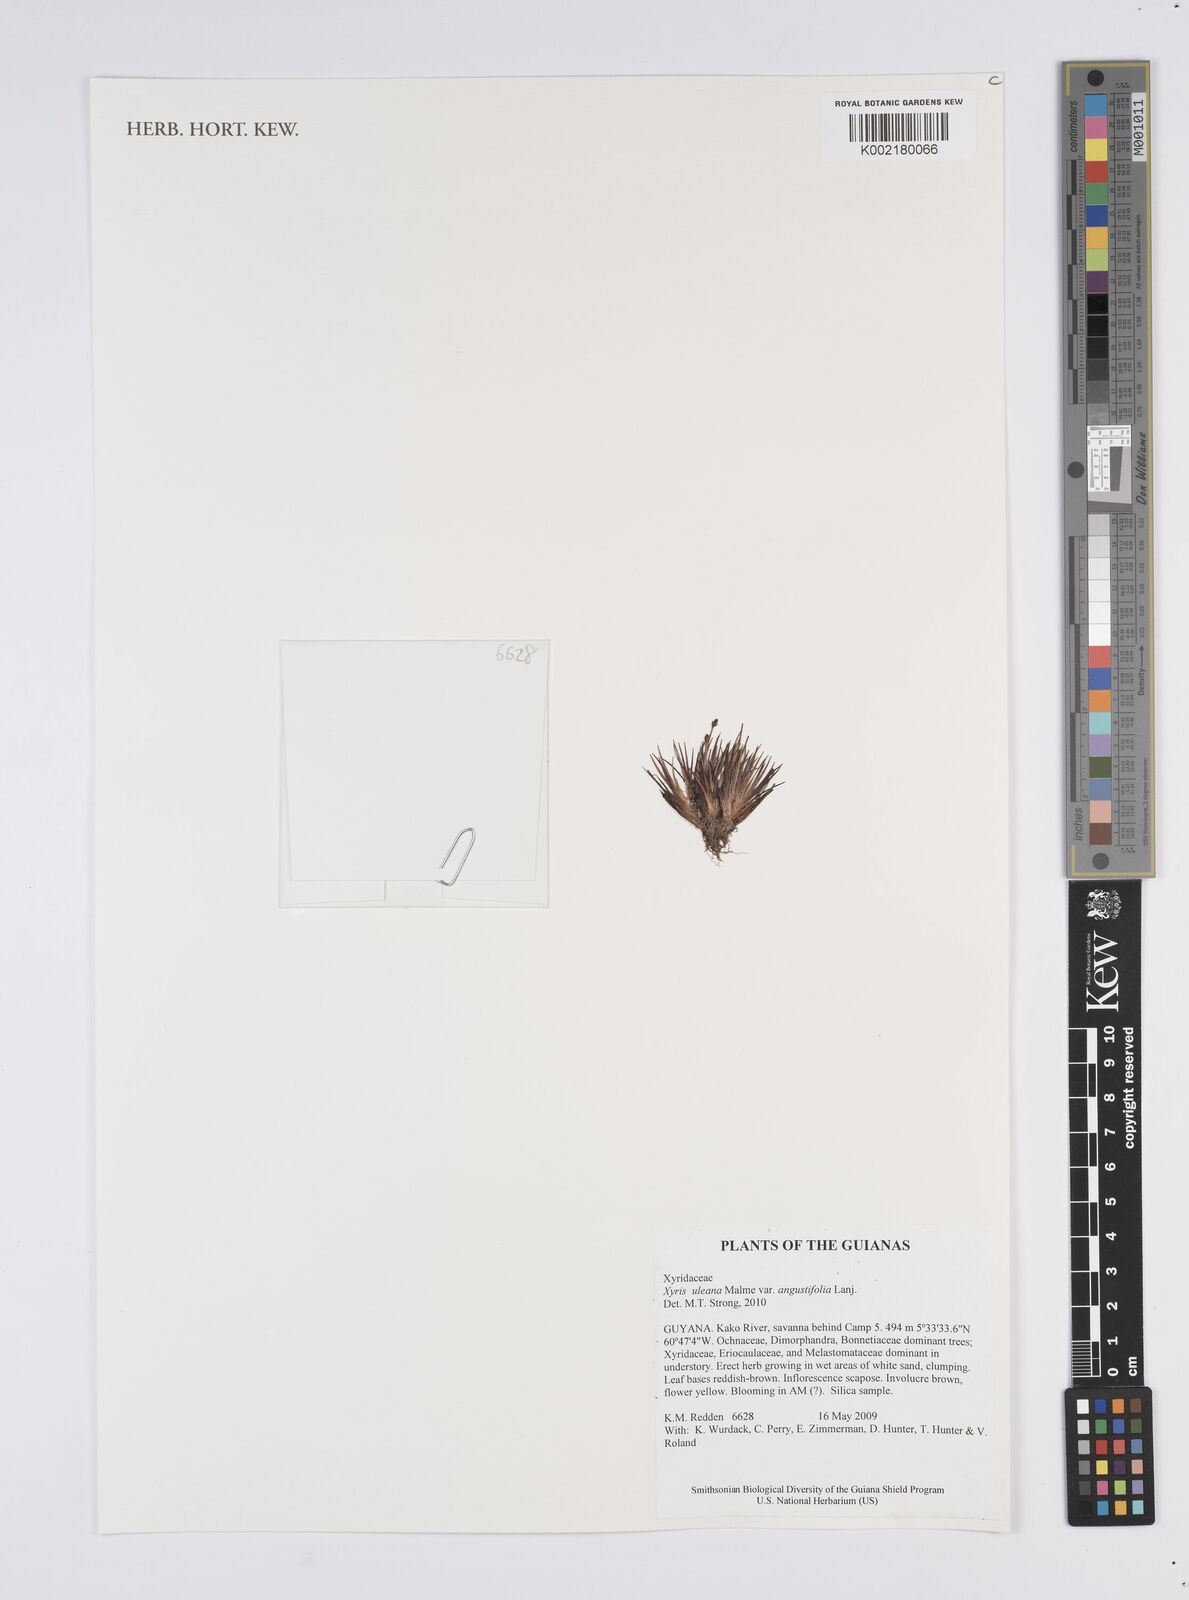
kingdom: Plantae
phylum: Tracheophyta
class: Liliopsida
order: Poales
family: Xyridaceae
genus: Xyris
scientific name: Xyris uleana
